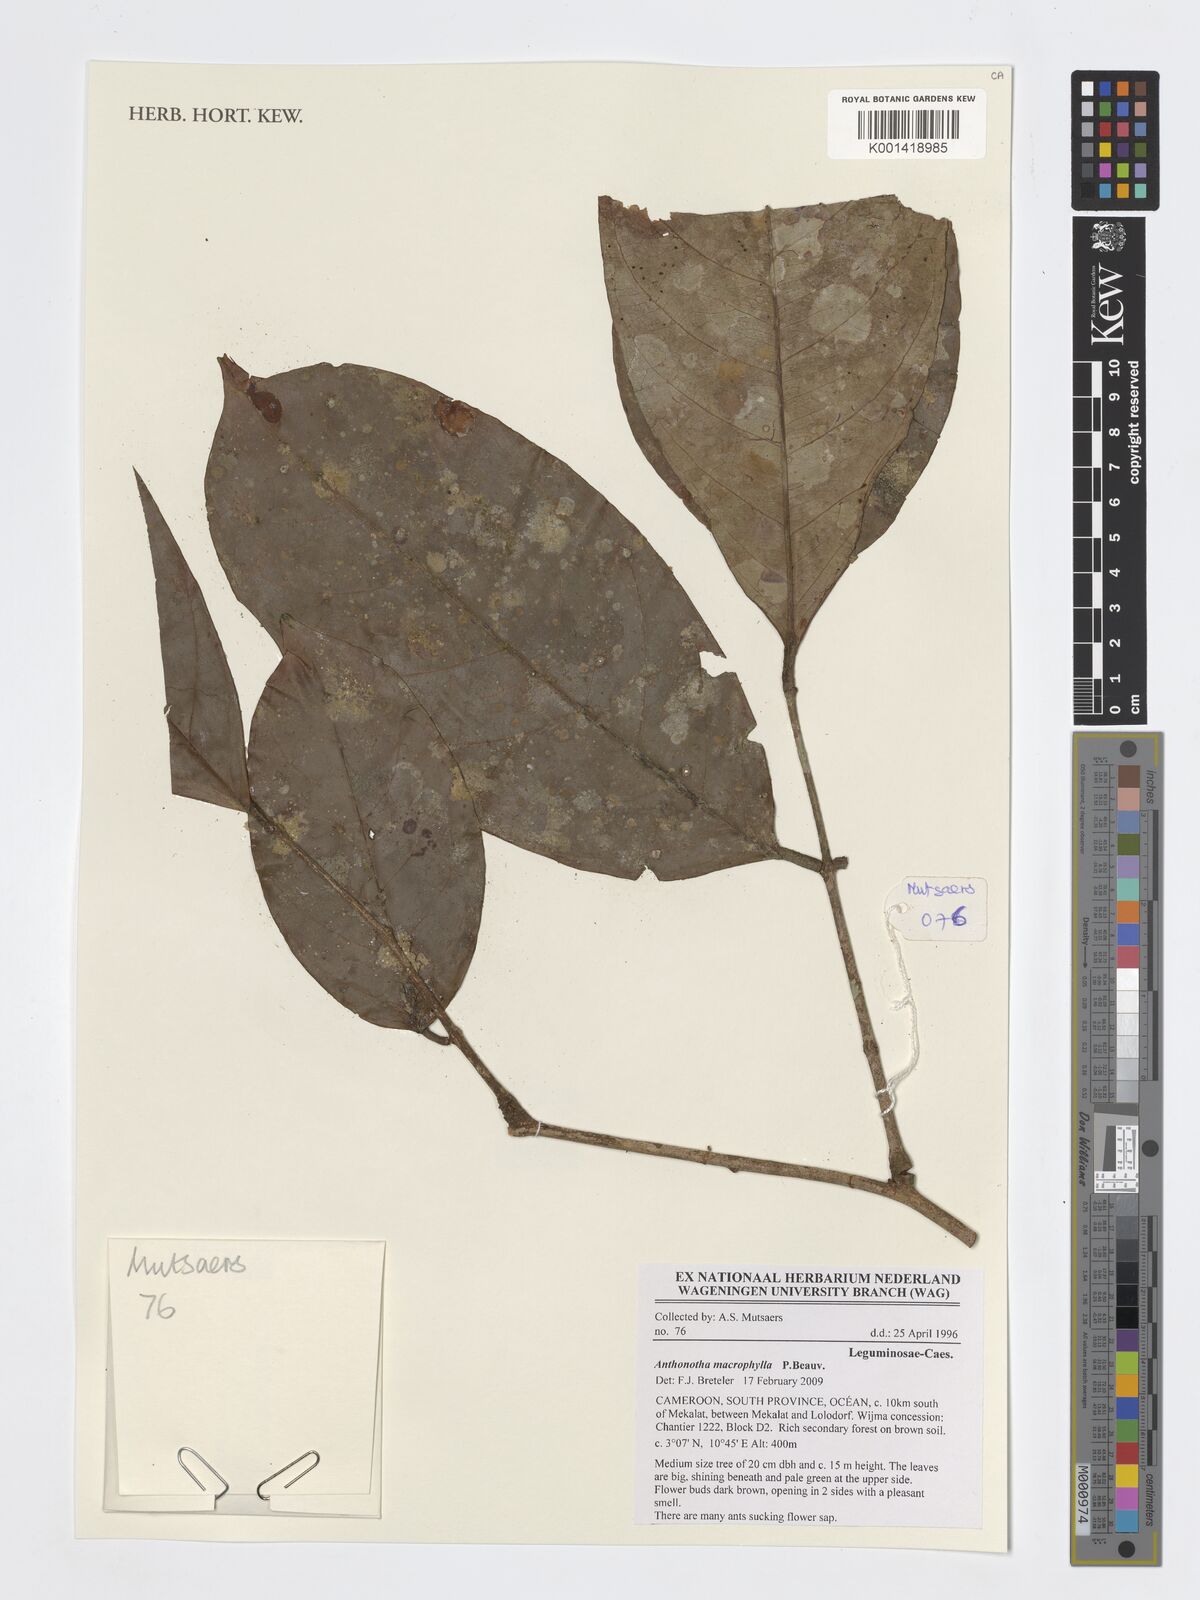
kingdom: Plantae
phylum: Tracheophyta
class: Magnoliopsida
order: Fabales
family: Fabaceae
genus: Anthonotha
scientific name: Anthonotha macrophylla
